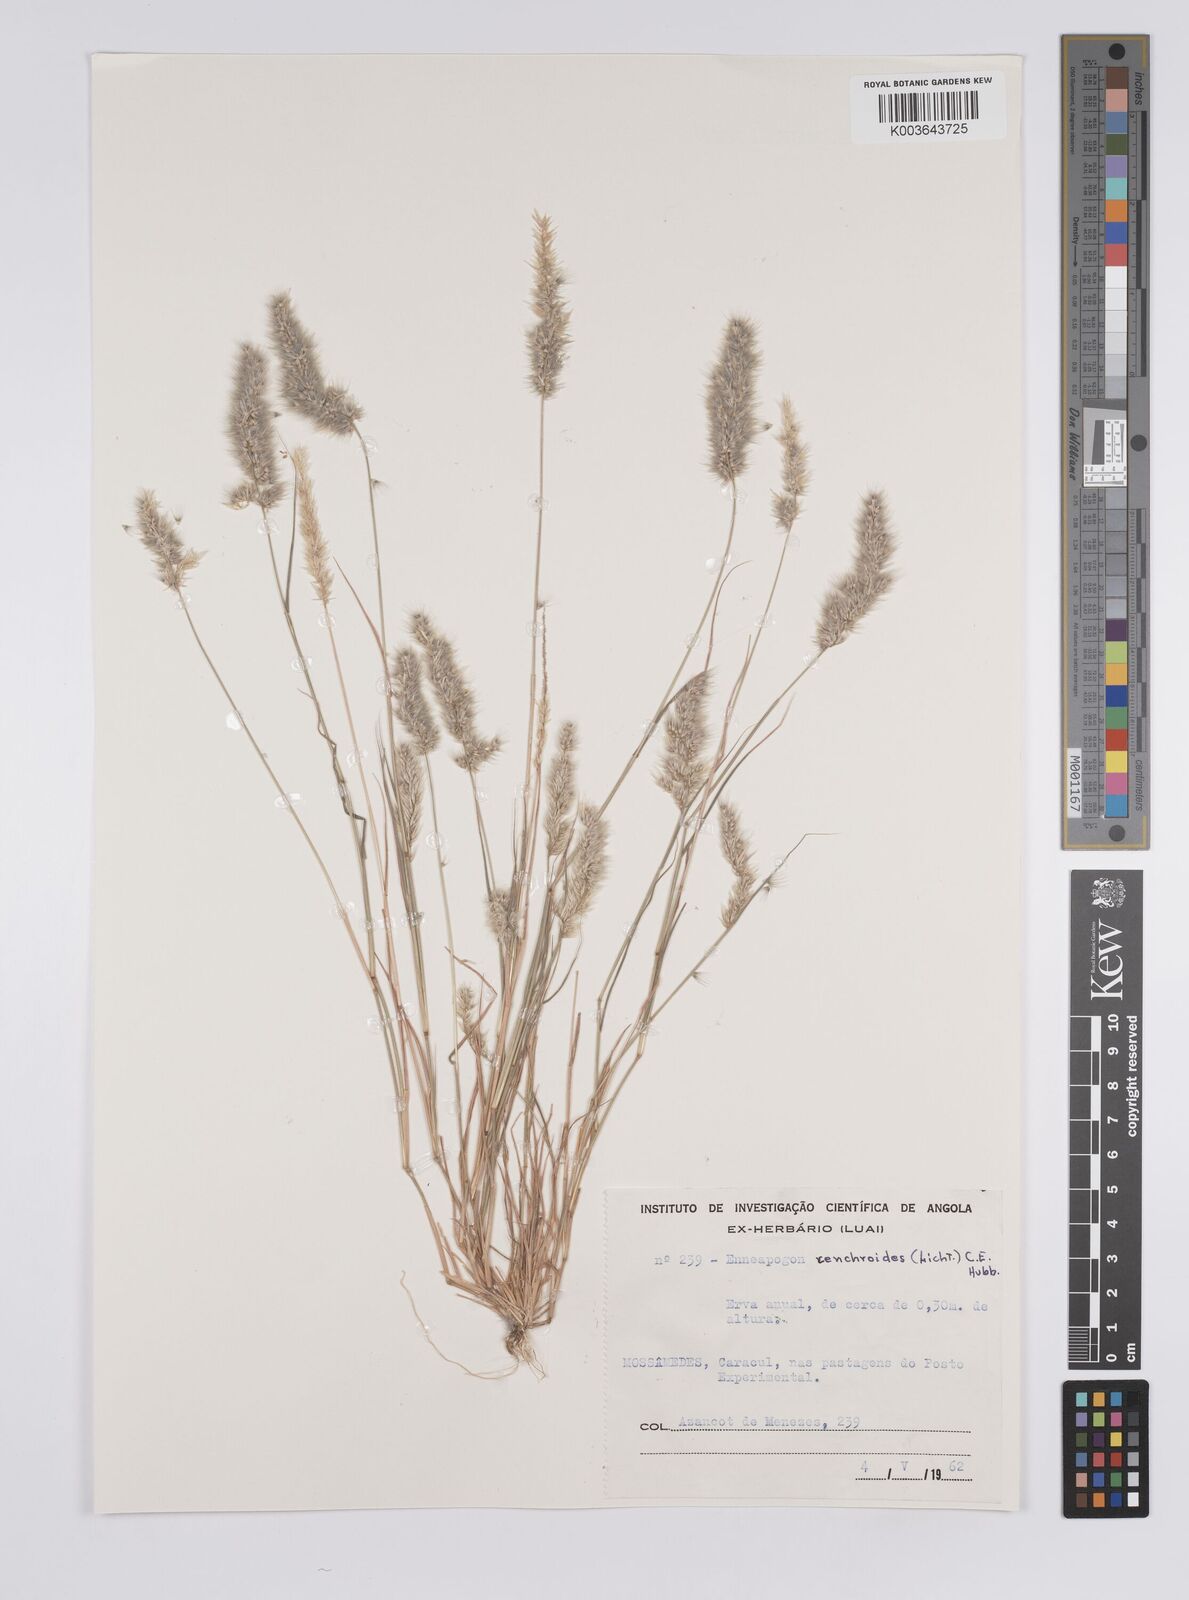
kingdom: Plantae
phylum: Tracheophyta
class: Liliopsida
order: Poales
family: Poaceae
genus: Enneapogon
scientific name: Enneapogon cenchroides
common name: Soft feather pappusgrass
